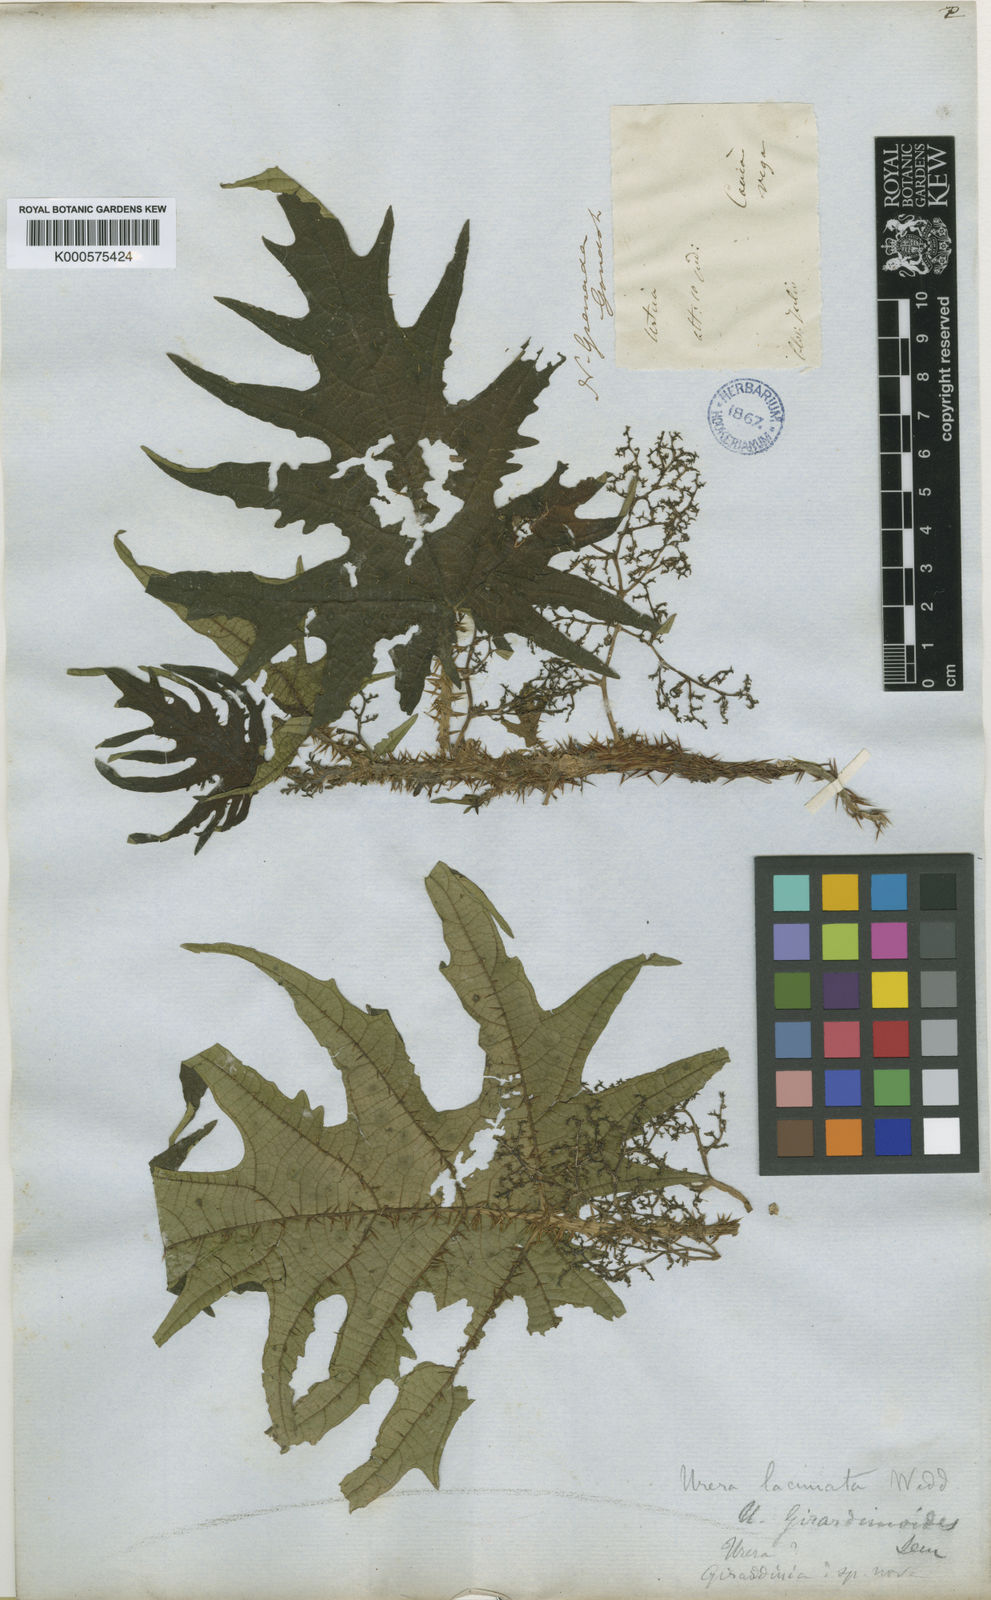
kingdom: Plantae
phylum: Tracheophyta
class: Magnoliopsida
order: Rosales
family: Urticaceae
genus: Urera
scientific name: Urera laciniata
